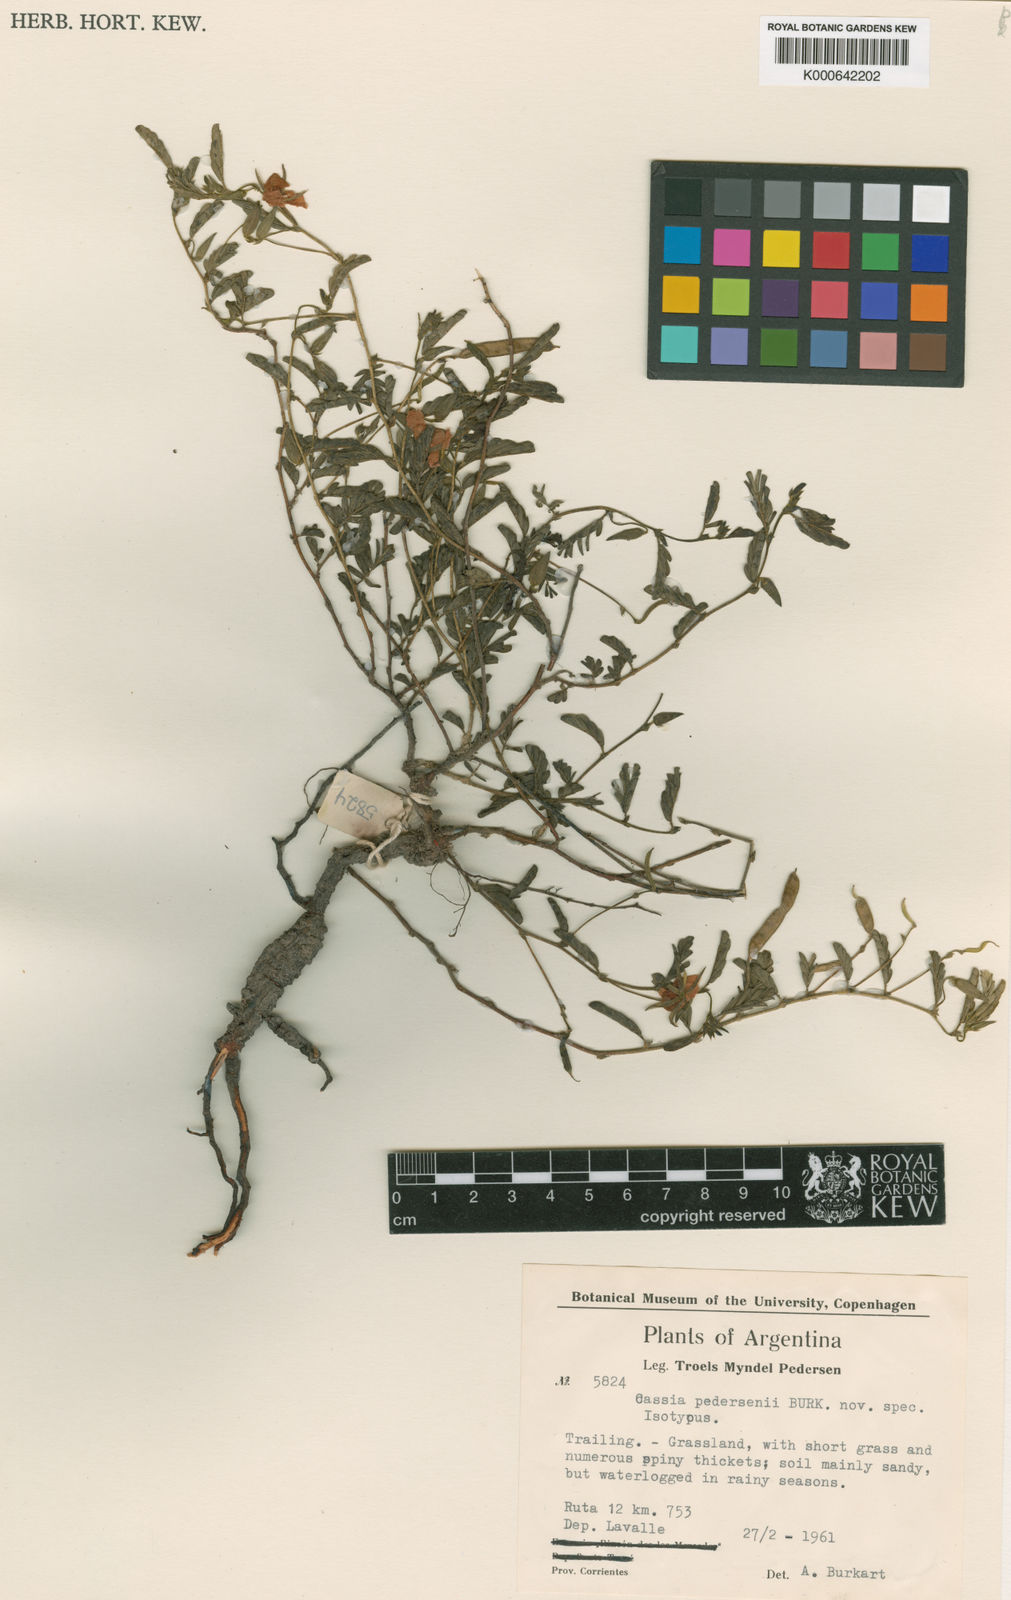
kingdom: Plantae
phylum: Tracheophyta
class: Magnoliopsida
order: Fabales
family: Fabaceae
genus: Chamaecrista
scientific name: Chamaecrista calycioides
